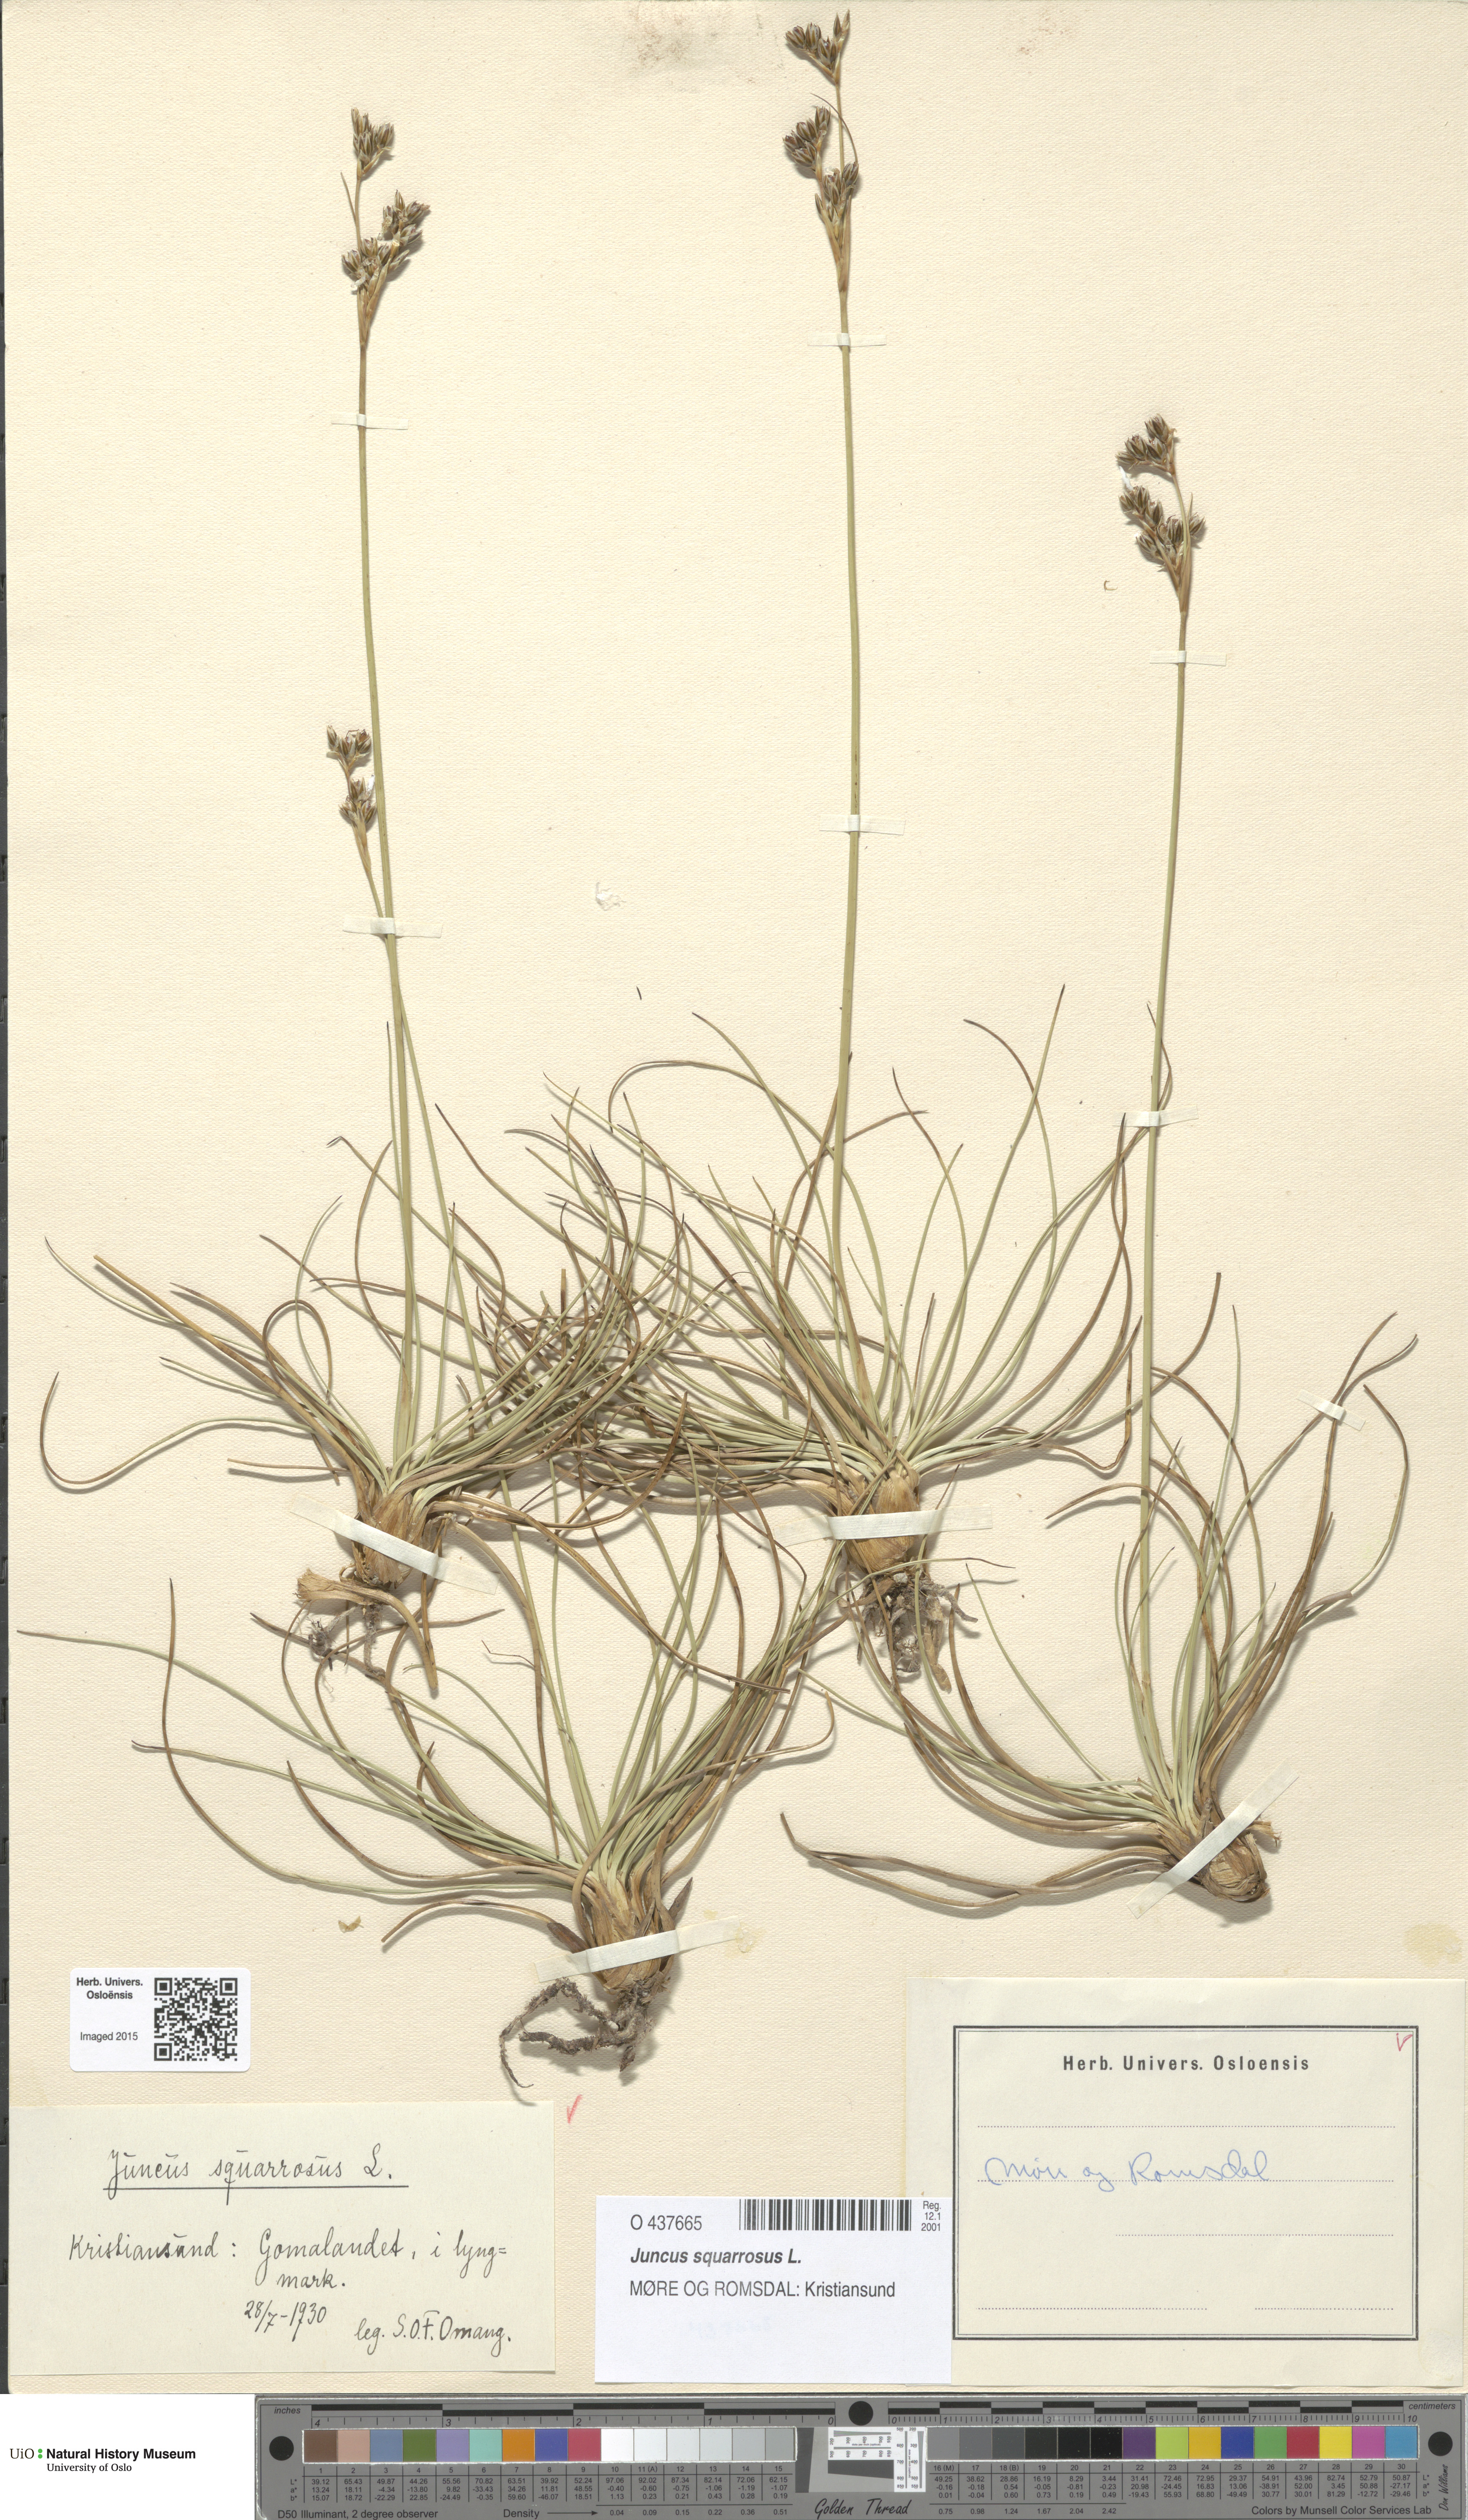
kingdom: Plantae
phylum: Tracheophyta
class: Liliopsida
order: Poales
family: Juncaceae
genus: Juncus
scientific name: Juncus squarrosus
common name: Heath rush
